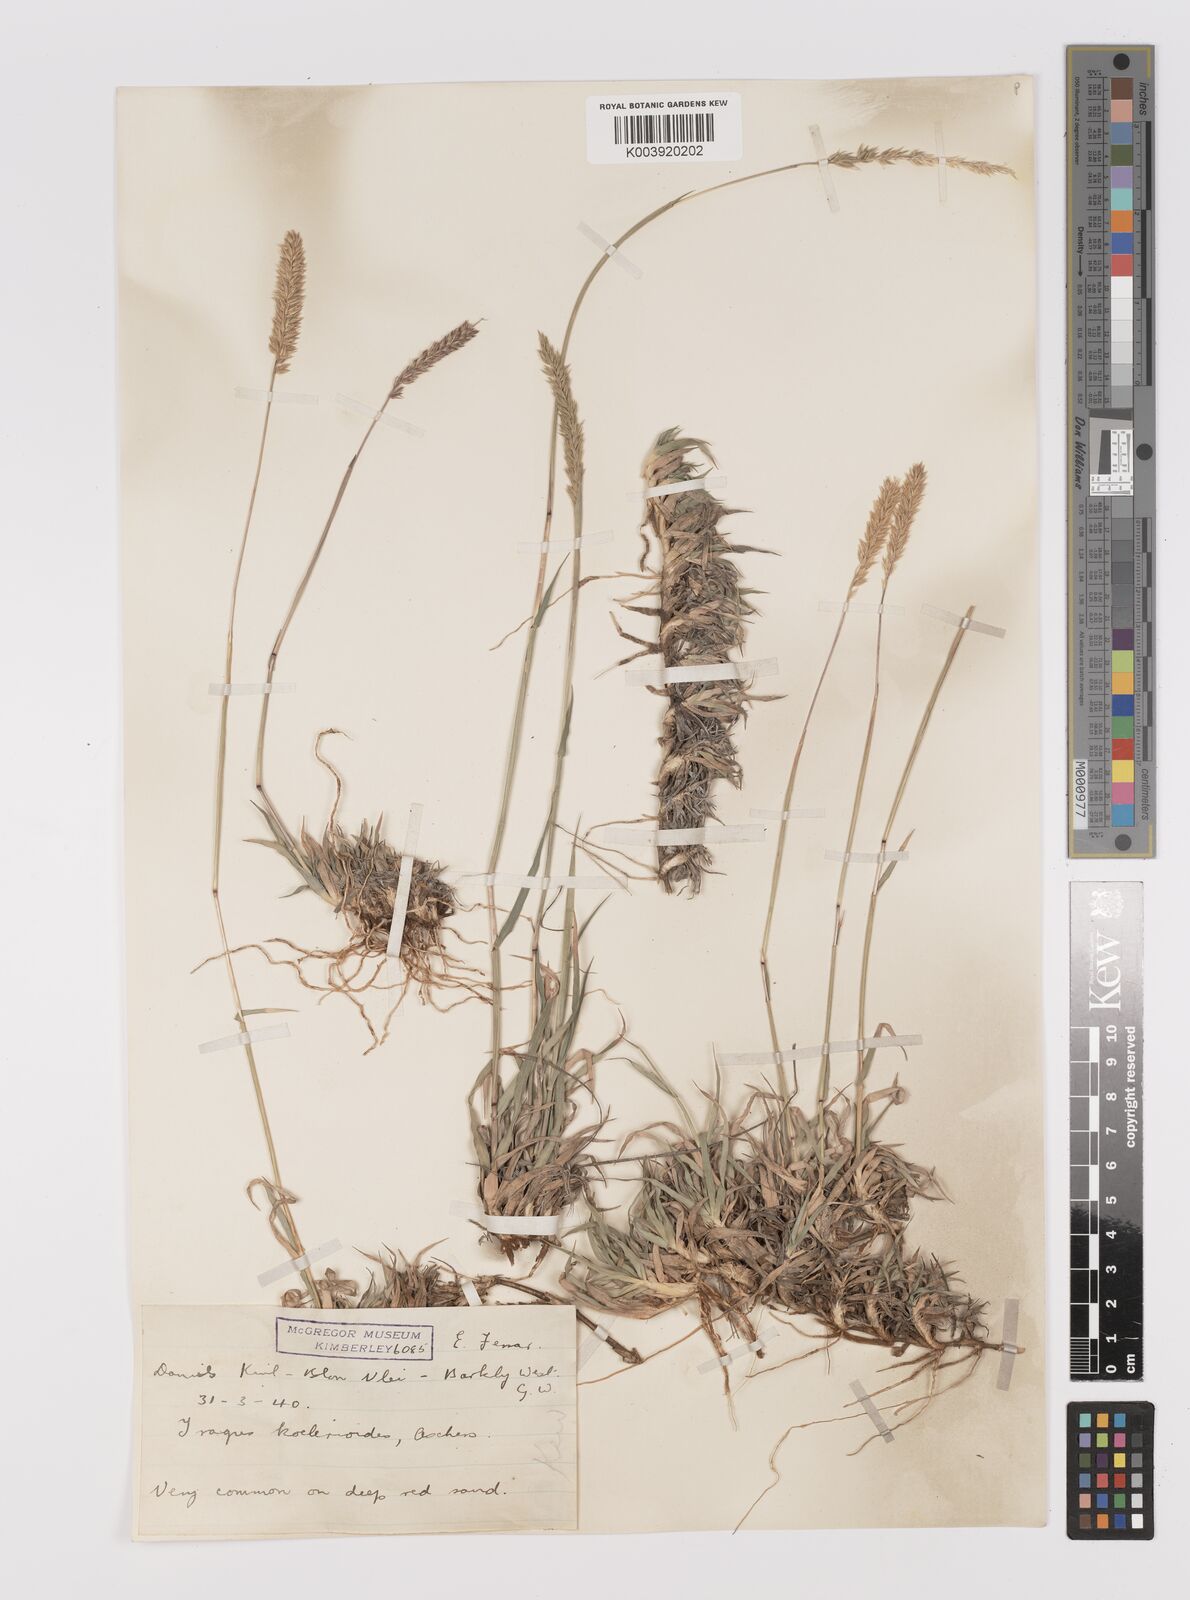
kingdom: Plantae
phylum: Tracheophyta
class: Liliopsida
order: Poales
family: Poaceae
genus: Tragus
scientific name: Tragus koelerioides
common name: Creeping carrot-seed grass
